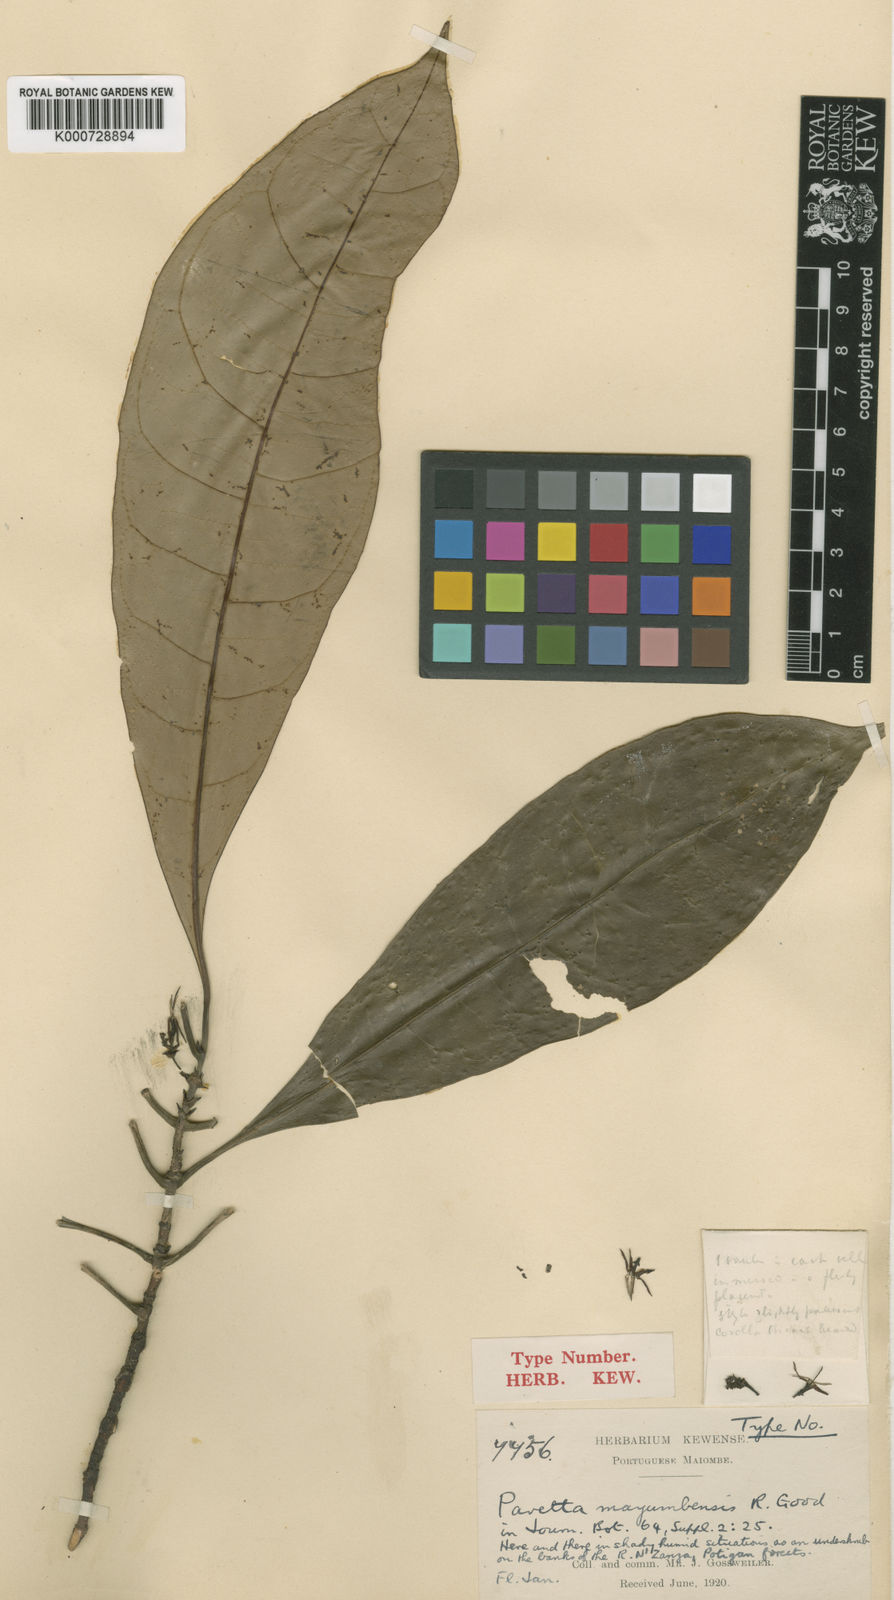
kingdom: Plantae
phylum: Tracheophyta
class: Magnoliopsida
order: Gentianales
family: Rubiaceae
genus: Pavetta
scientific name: Pavetta mayumbensis
